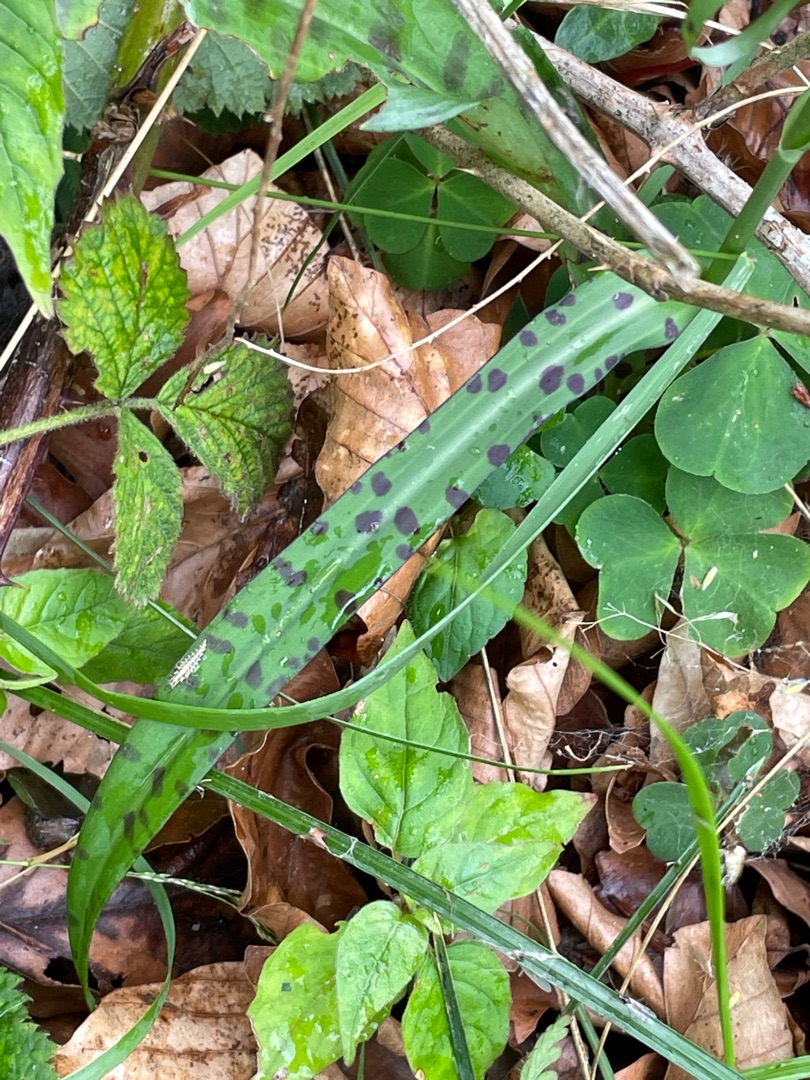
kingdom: Plantae
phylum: Tracheophyta
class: Liliopsida
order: Asparagales
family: Orchidaceae
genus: Dactylorhiza
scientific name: Dactylorhiza maculata
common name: Skov-gøgeurt
